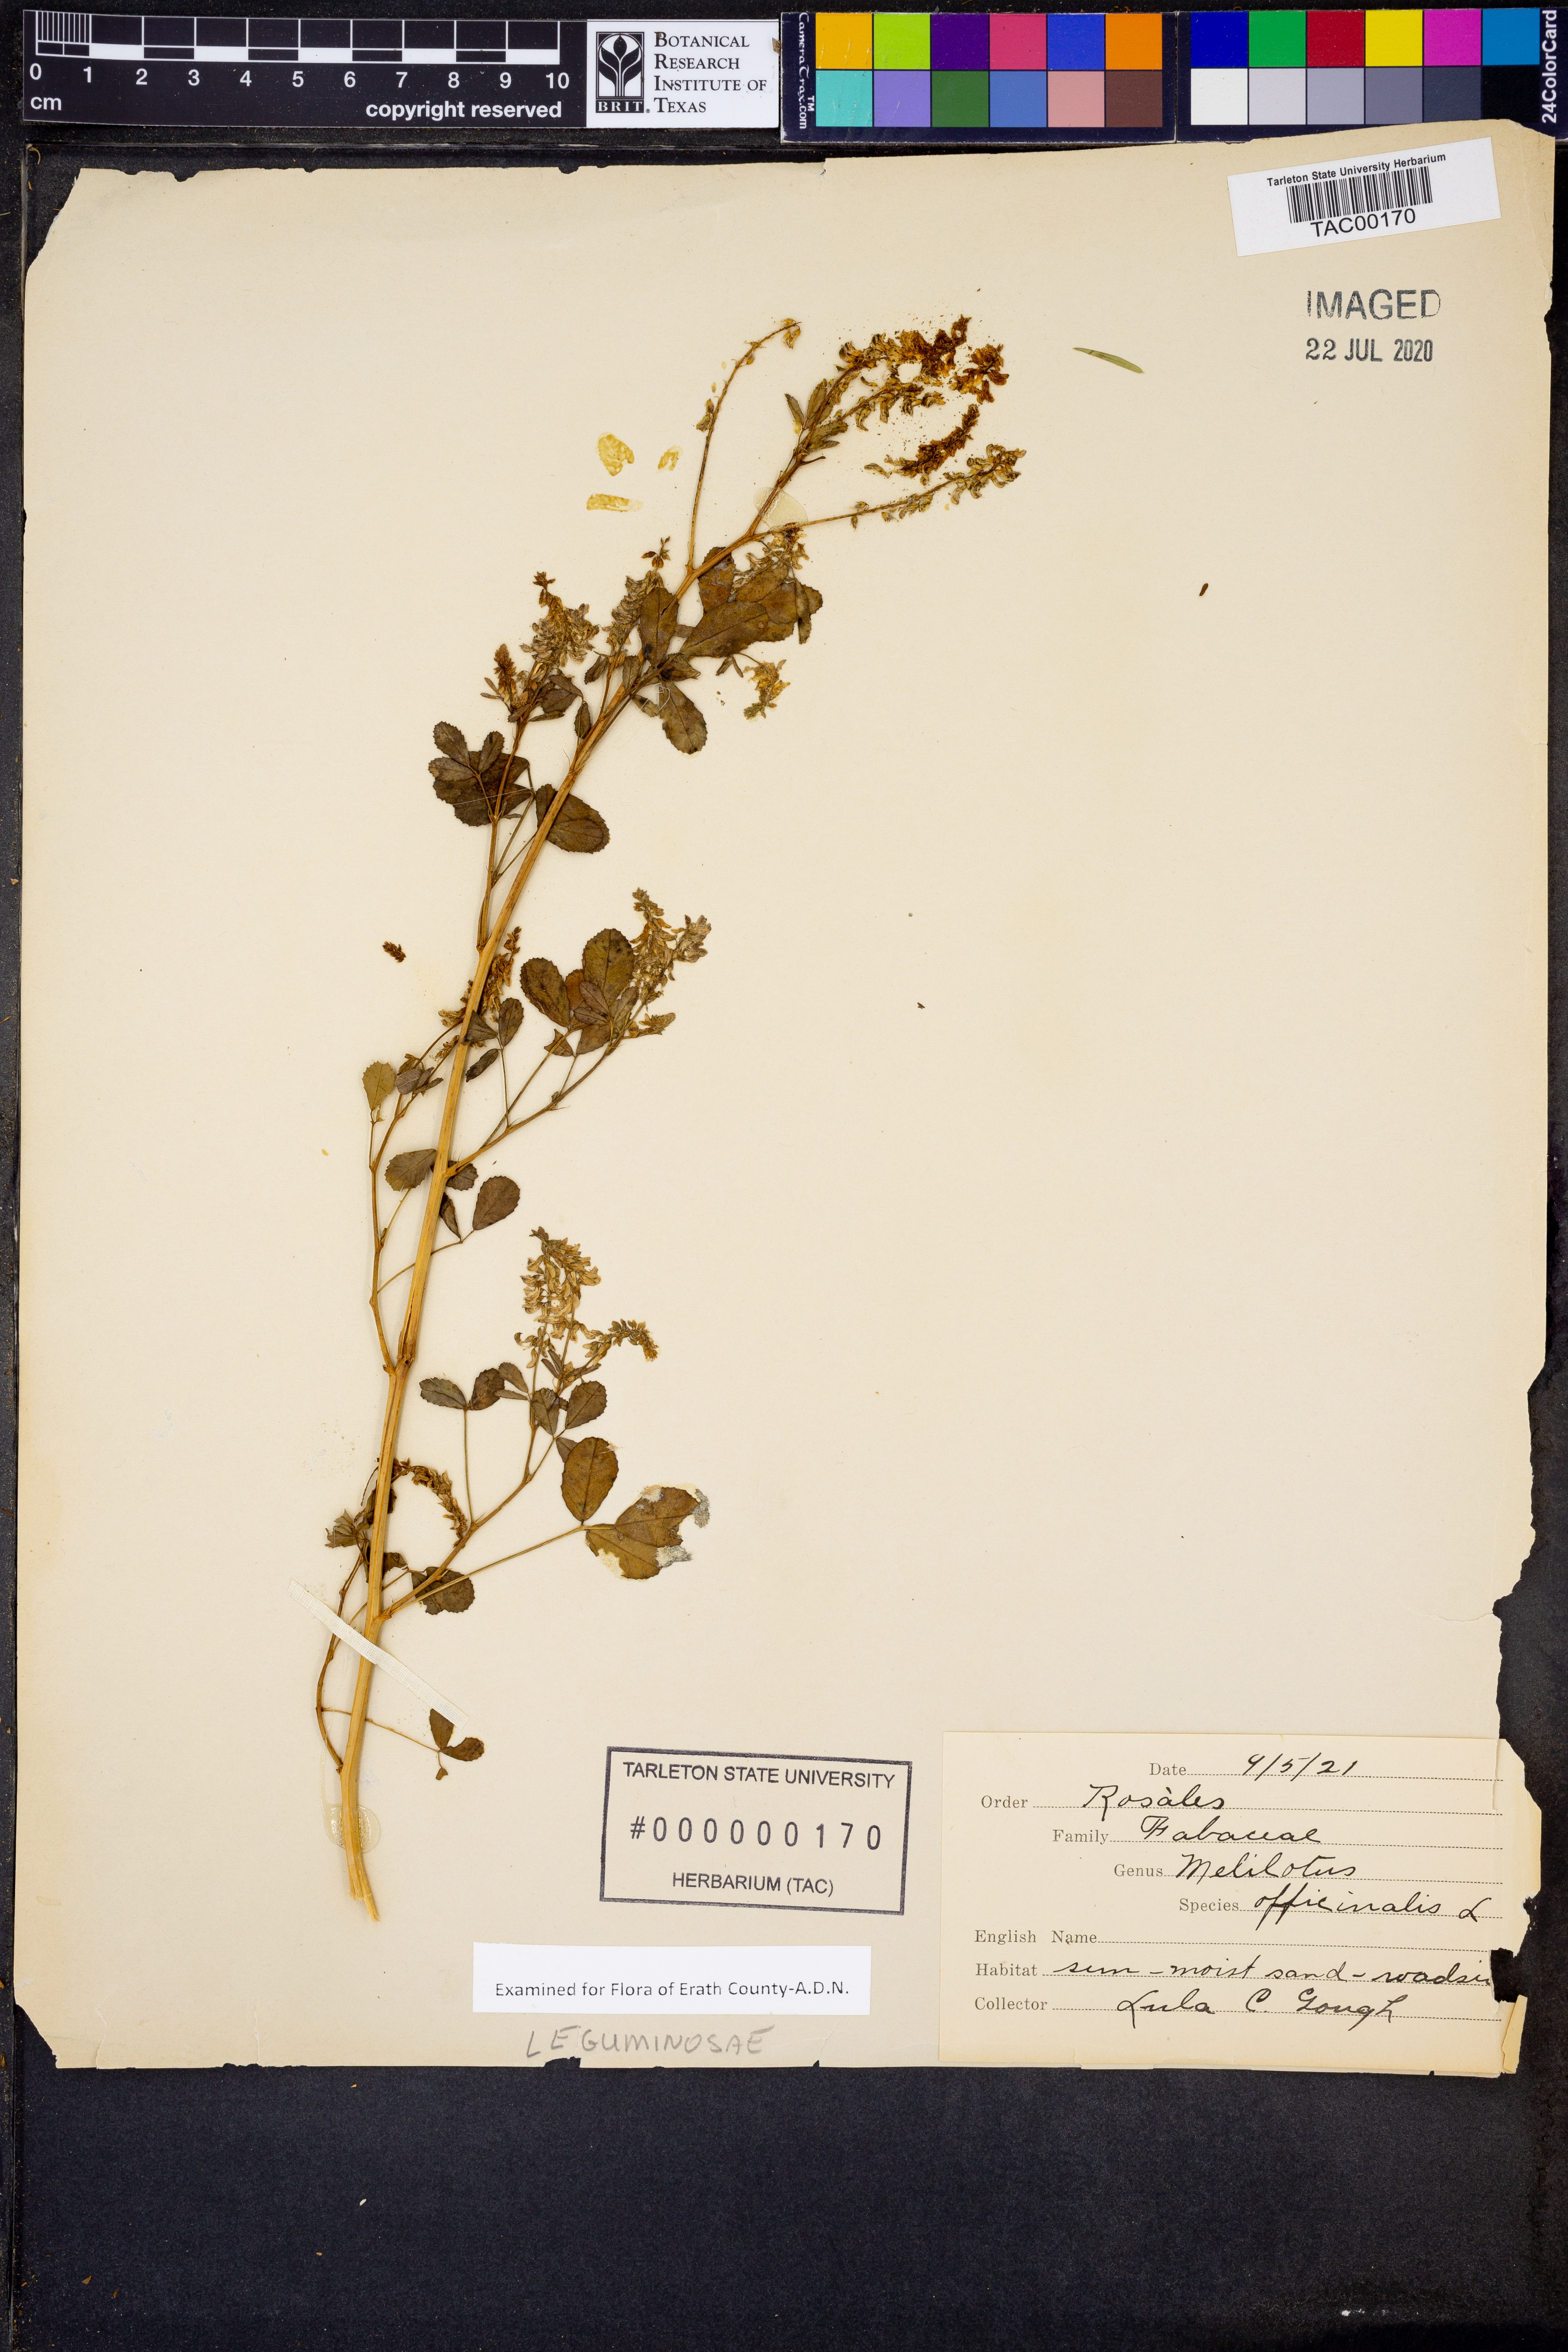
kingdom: Plantae
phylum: Tracheophyta
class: Magnoliopsida
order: Fabales
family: Fabaceae
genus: Melilotus
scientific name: Melilotus officinalis
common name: Sweetclover
